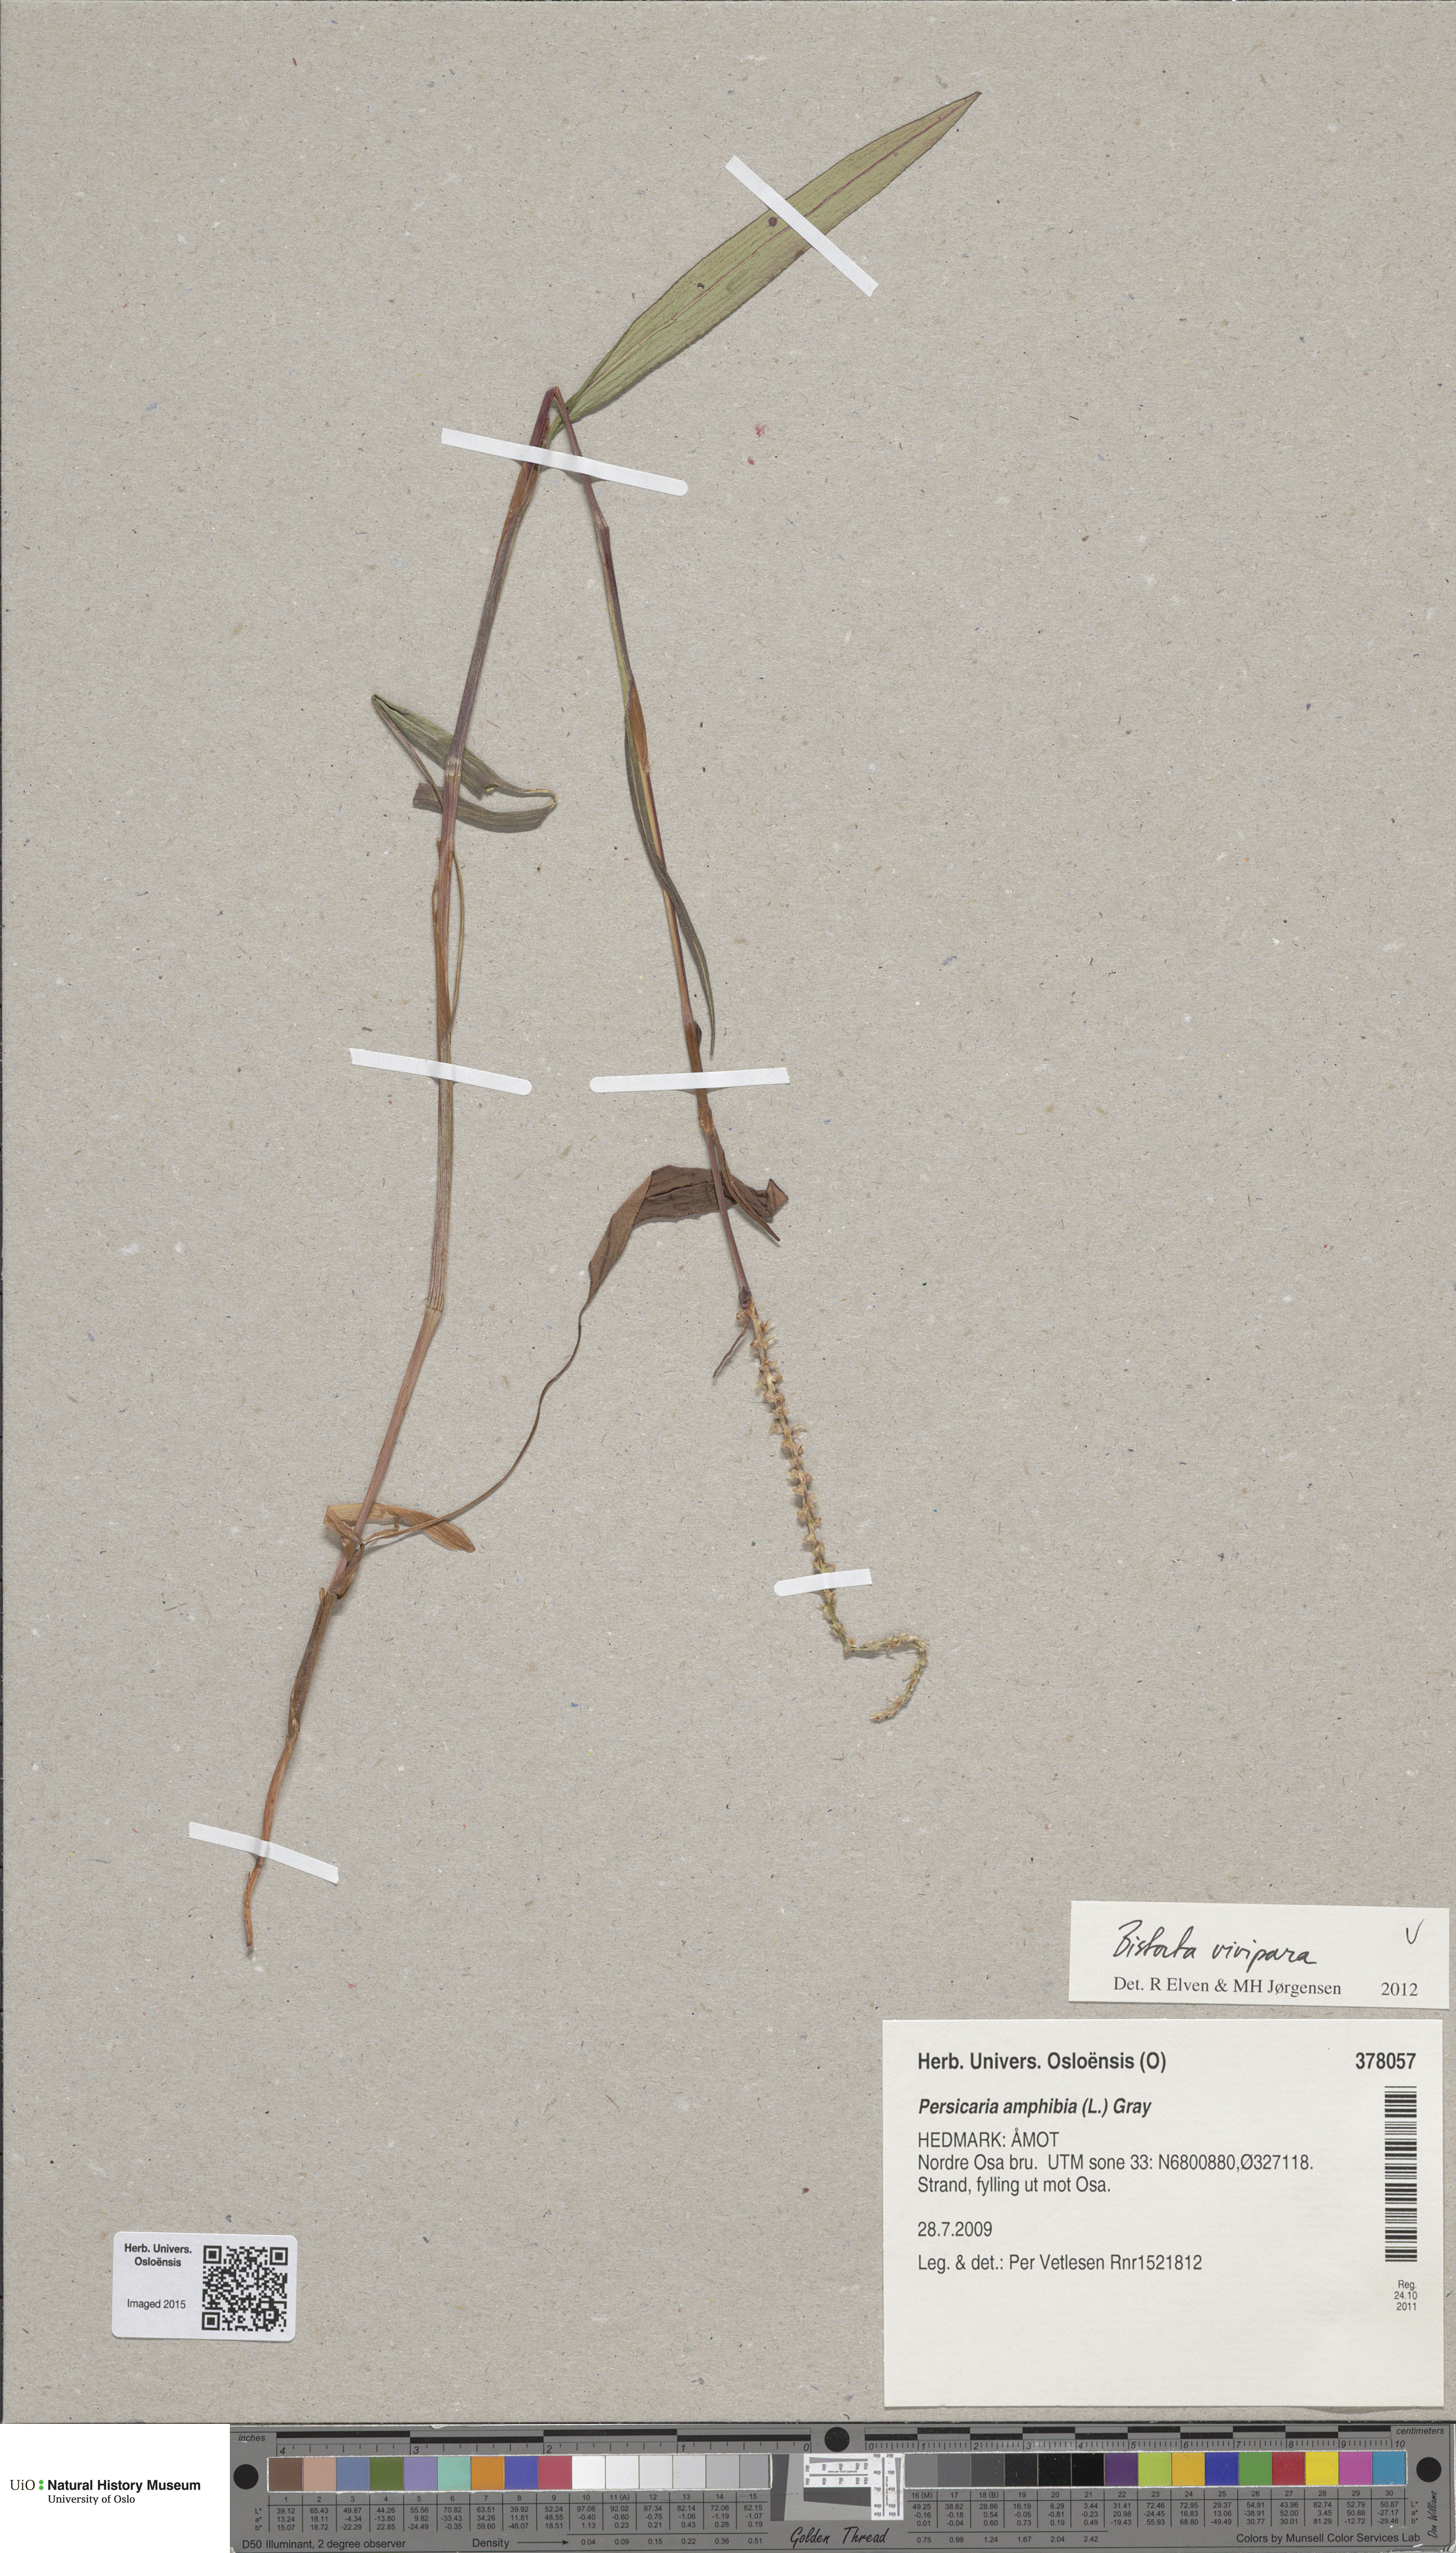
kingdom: Plantae
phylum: Tracheophyta
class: Magnoliopsida
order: Caryophyllales
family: Polygonaceae
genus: Bistorta
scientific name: Bistorta vivipara
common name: Alpine bistort
